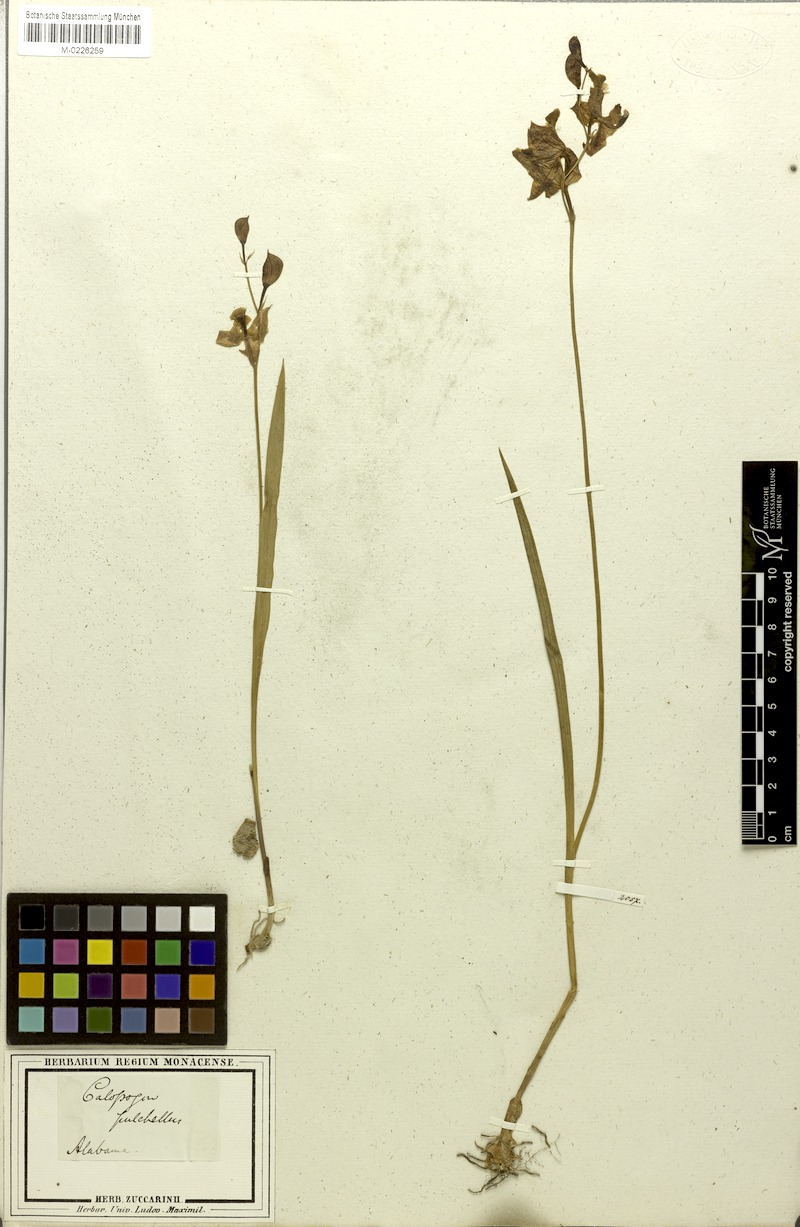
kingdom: Plantae
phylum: Tracheophyta
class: Liliopsida
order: Asparagales
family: Orchidaceae
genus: Calopogon
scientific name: Calopogon tuberosus
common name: Grass-pink
